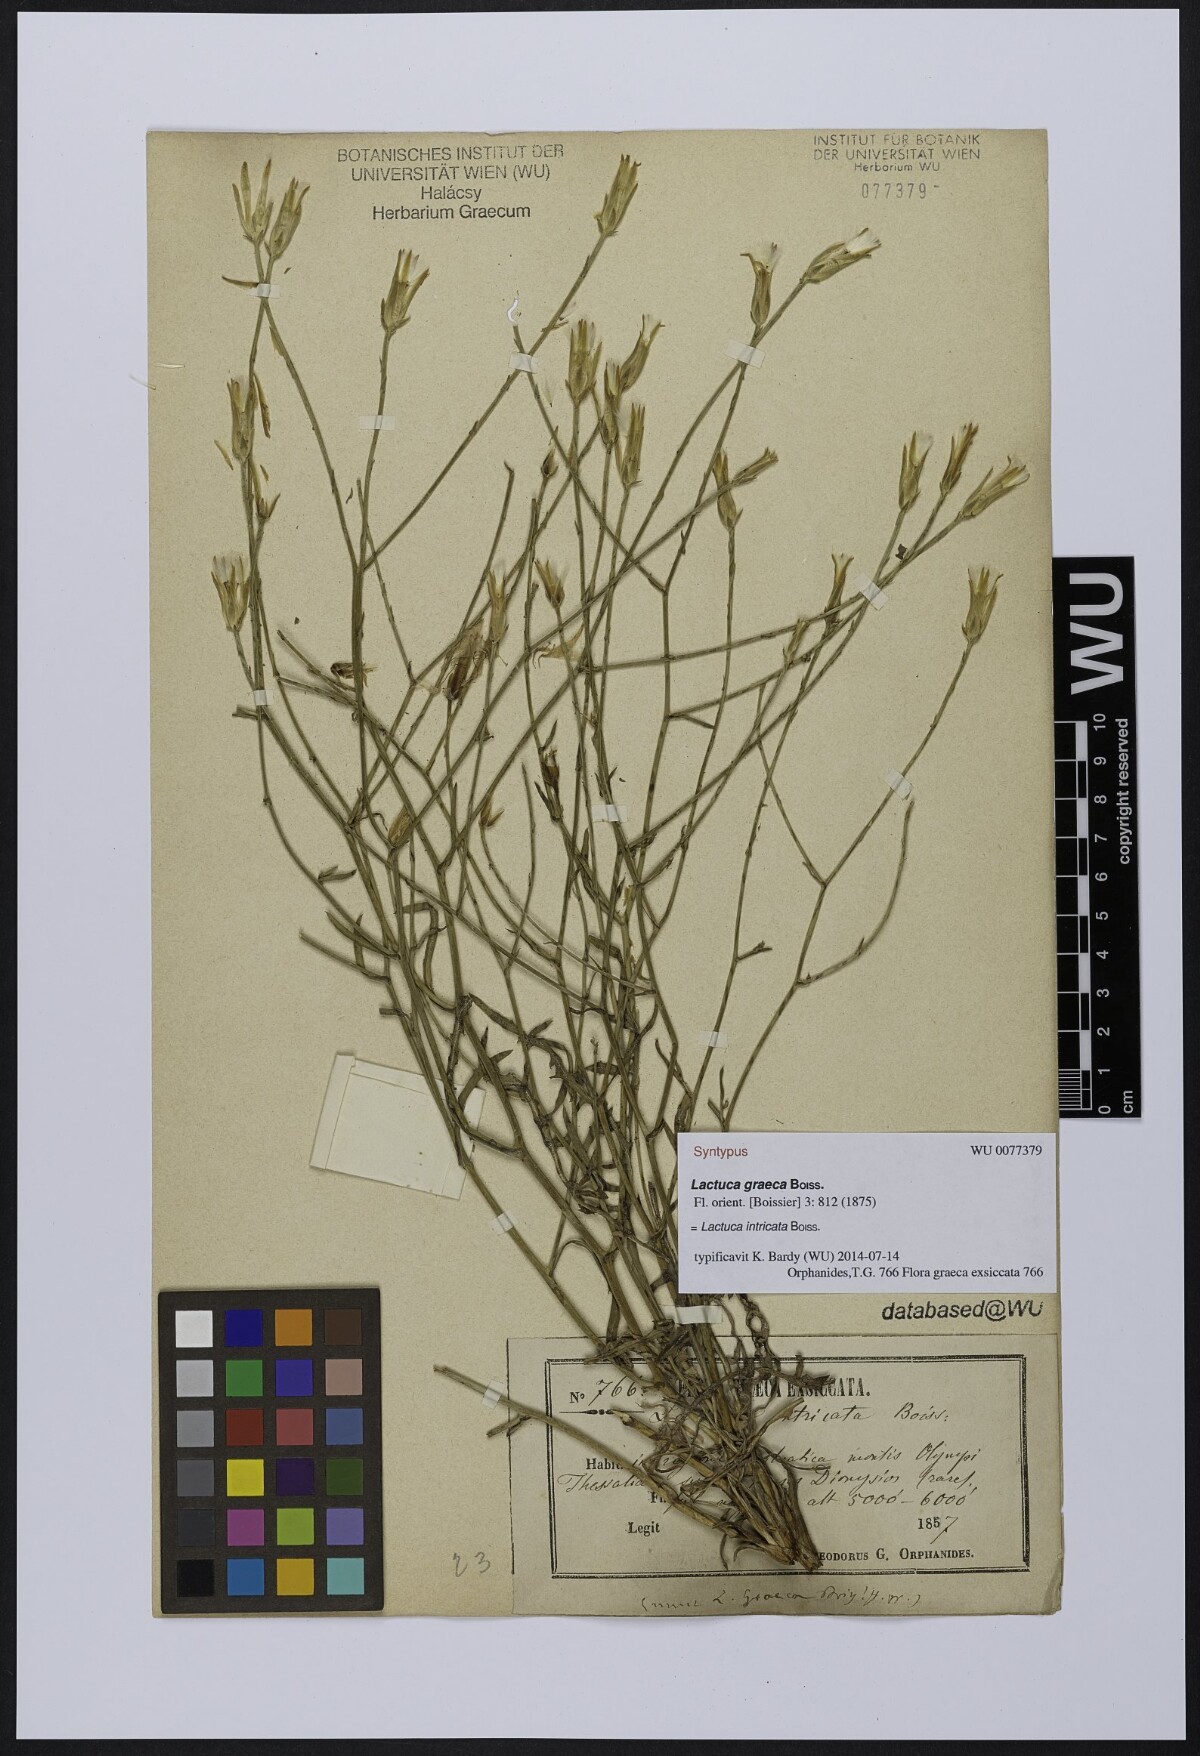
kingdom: Plantae
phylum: Tracheophyta
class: Magnoliopsida
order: Asterales
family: Asteraceae
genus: Lactuca
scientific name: Lactuca intricata
